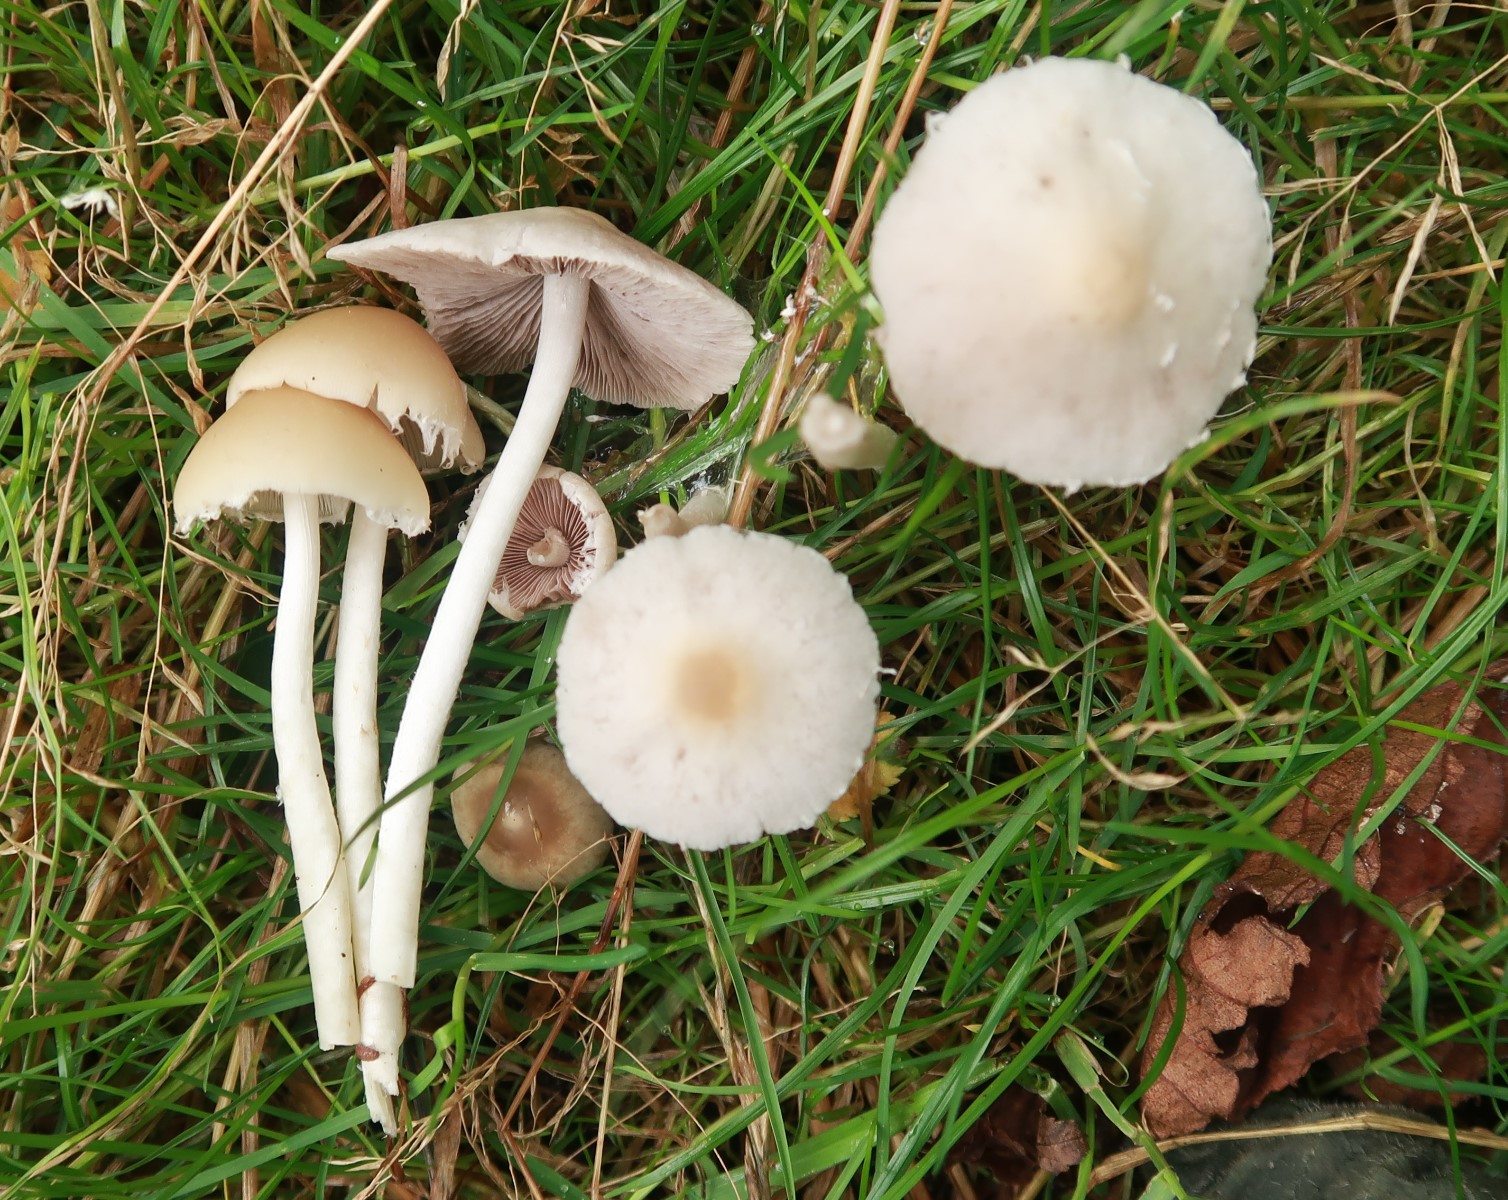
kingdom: Fungi
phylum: Basidiomycota
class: Agaricomycetes
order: Agaricales
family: Psathyrellaceae
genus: Candolleomyces
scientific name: Candolleomyces candolleanus
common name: Candolles mørkhat
